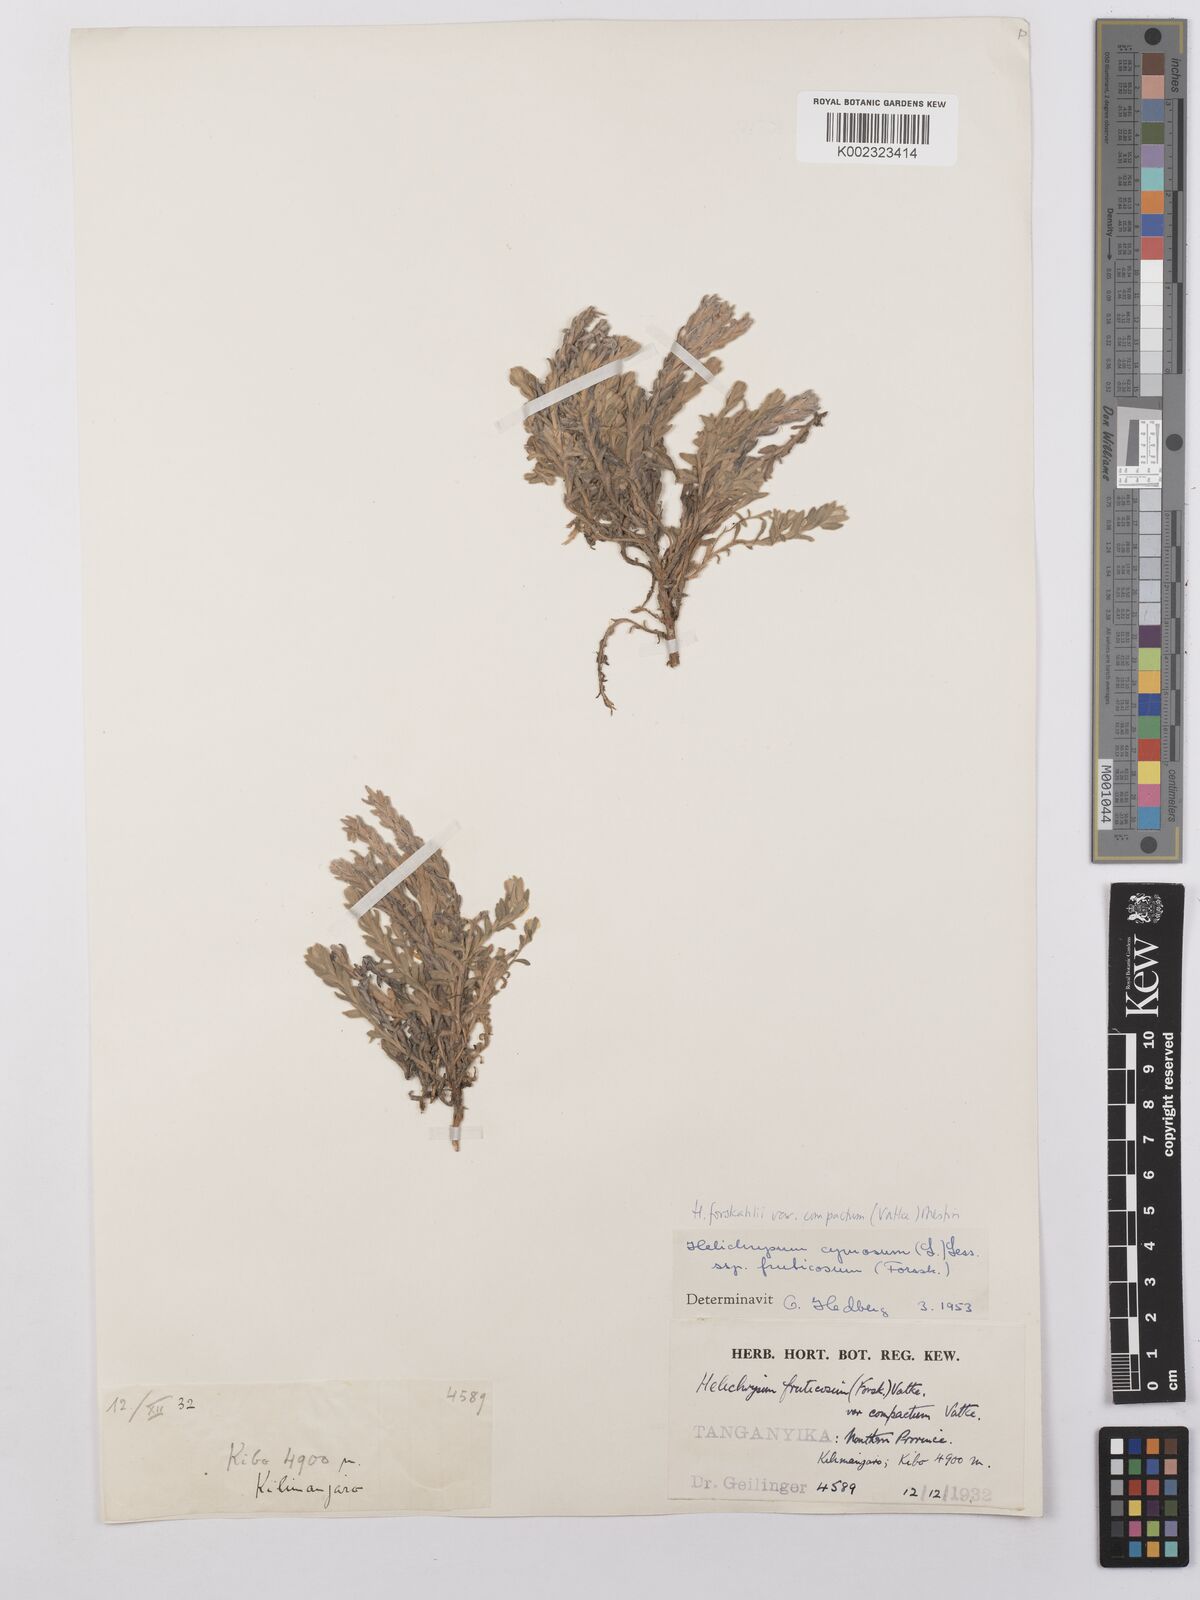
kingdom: Plantae
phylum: Tracheophyta
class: Magnoliopsida
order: Asterales
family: Asteraceae
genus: Helichrysum
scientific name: Helichrysum forskahlii
